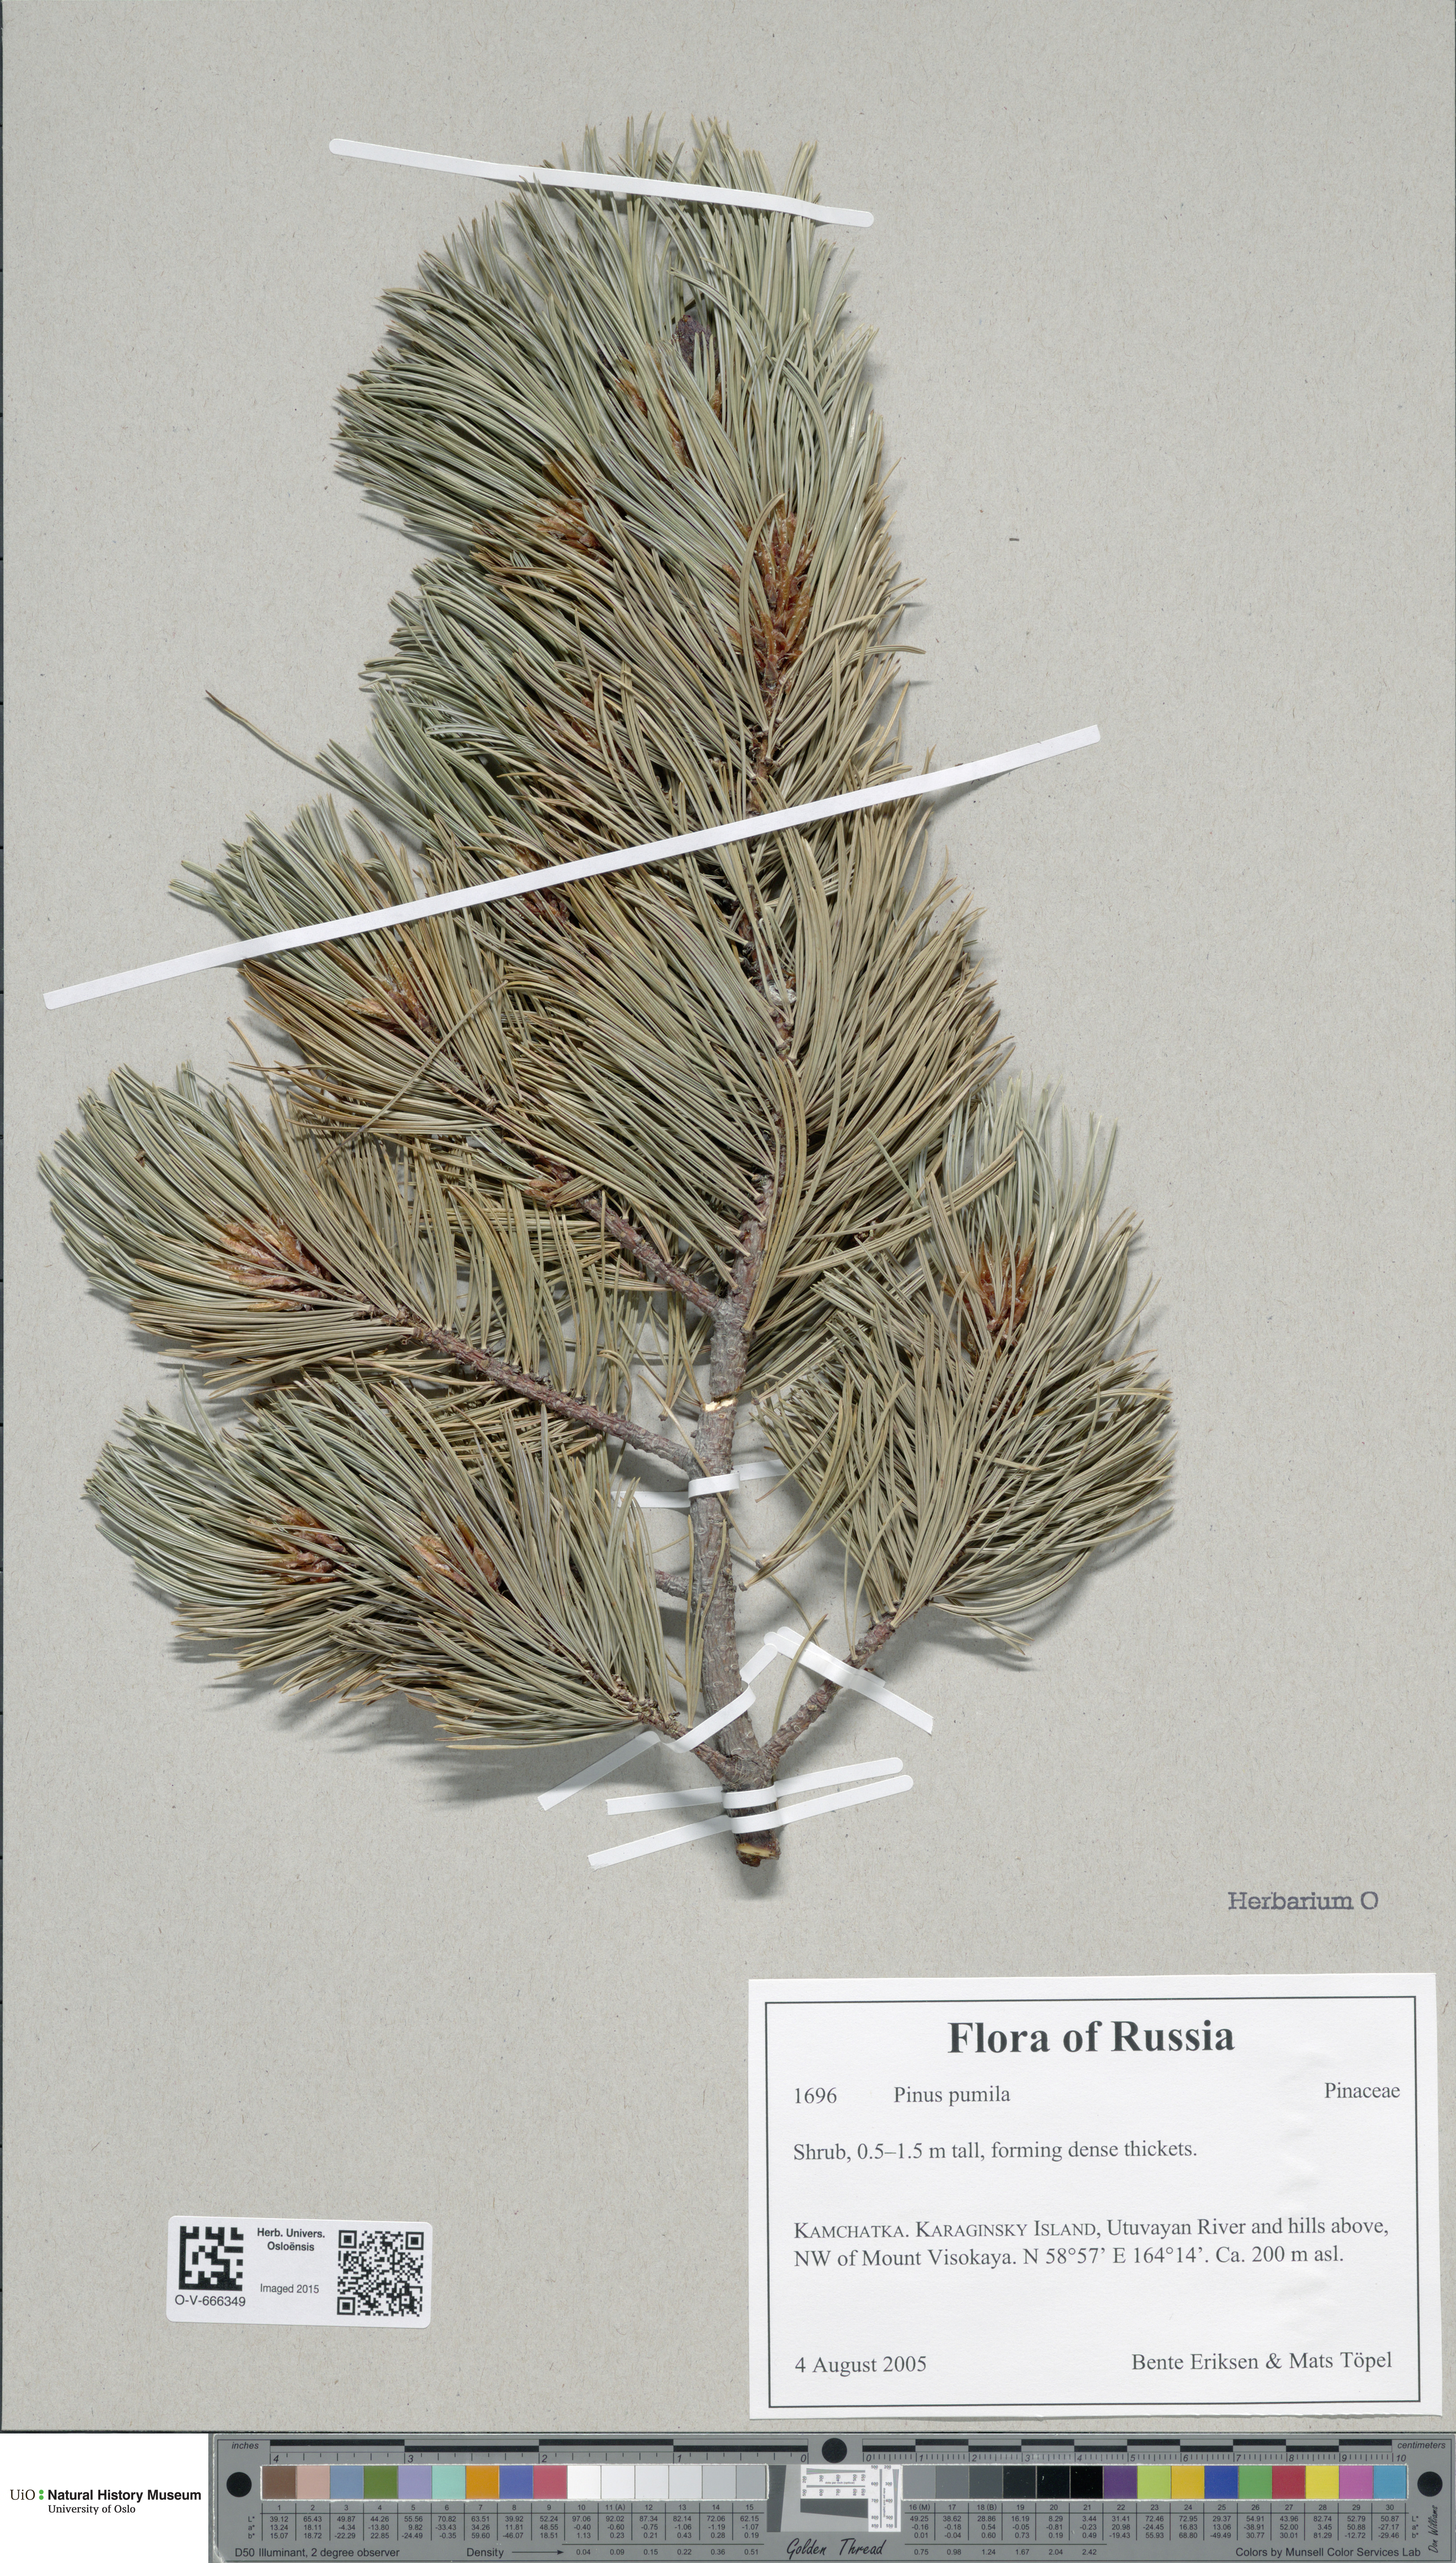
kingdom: Plantae
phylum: Tracheophyta
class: Pinopsida
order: Pinales
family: Pinaceae
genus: Pinus
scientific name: Pinus pumila
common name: Dwarf siberian pine
